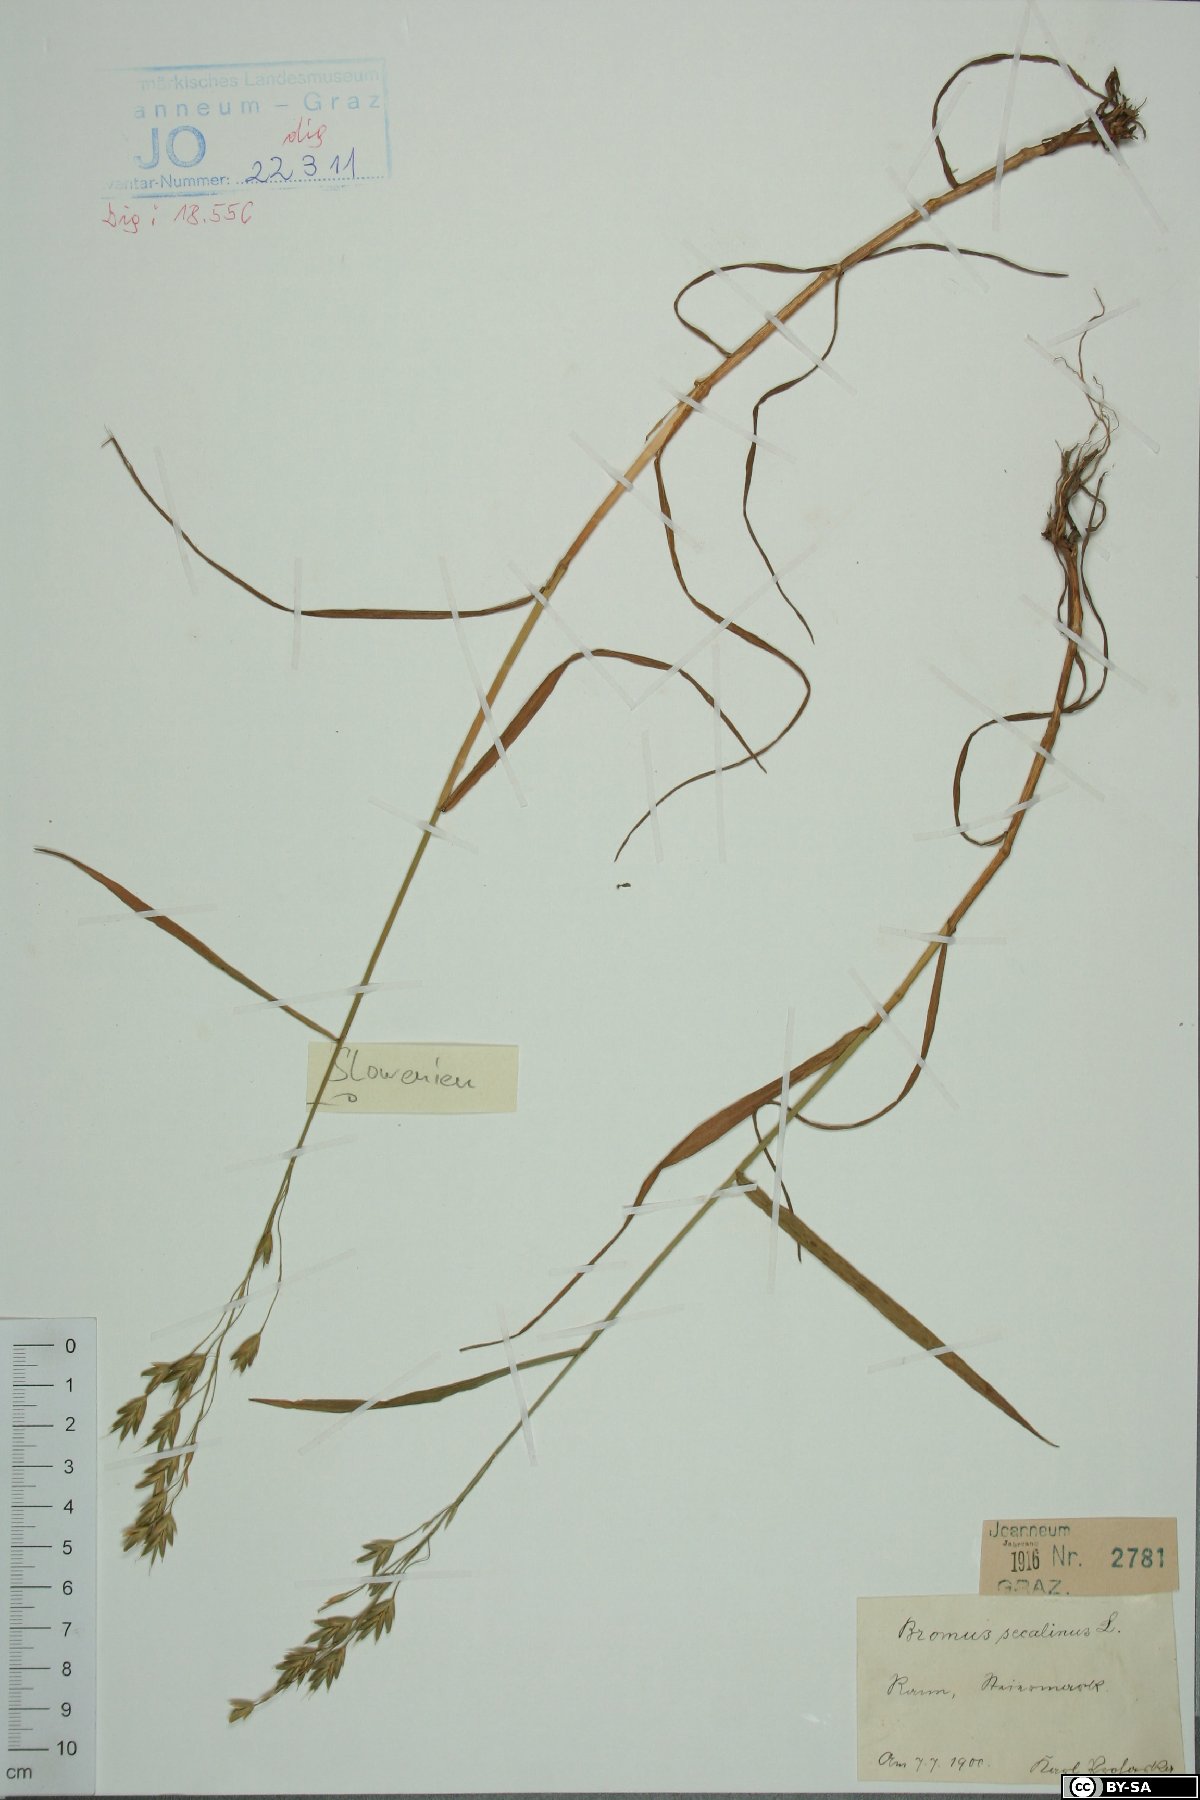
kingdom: Plantae
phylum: Tracheophyta
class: Liliopsida
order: Poales
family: Poaceae
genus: Bromus
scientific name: Bromus secalinus
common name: Rye brome
